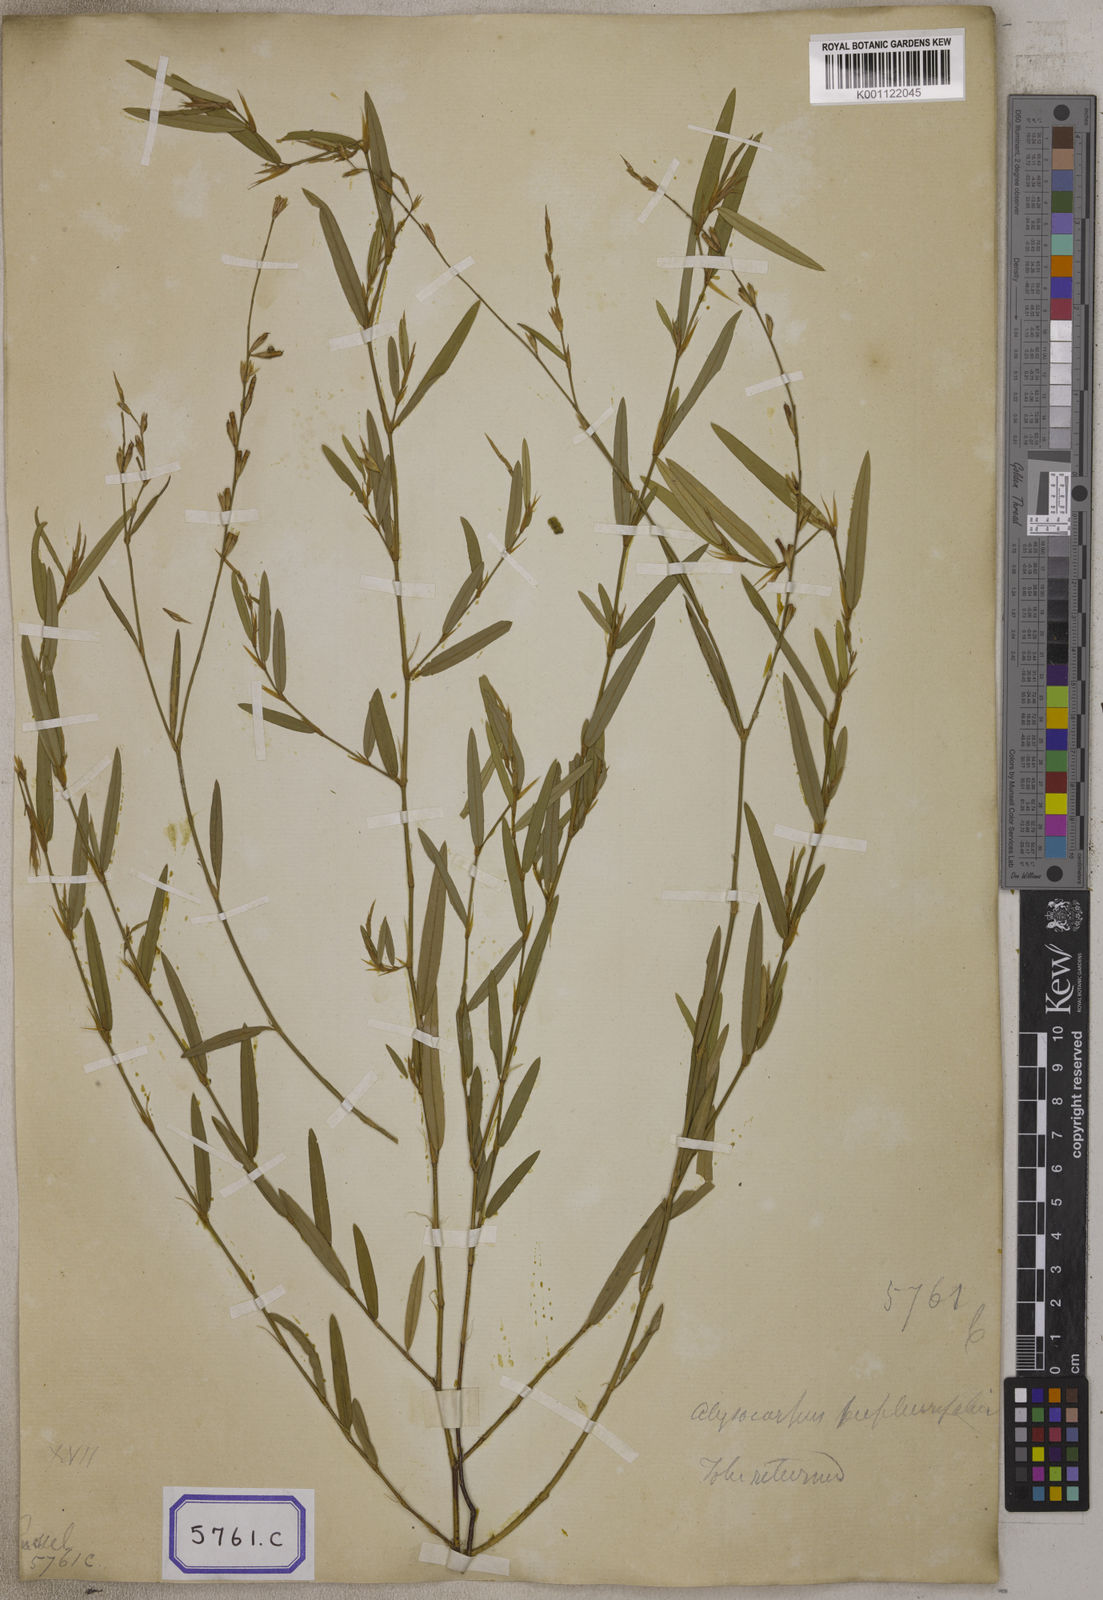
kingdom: Plantae
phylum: Tracheophyta
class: Magnoliopsida
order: Fabales
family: Fabaceae
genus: Alysicarpus
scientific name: Alysicarpus bupleurifolius
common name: Sweet alys
